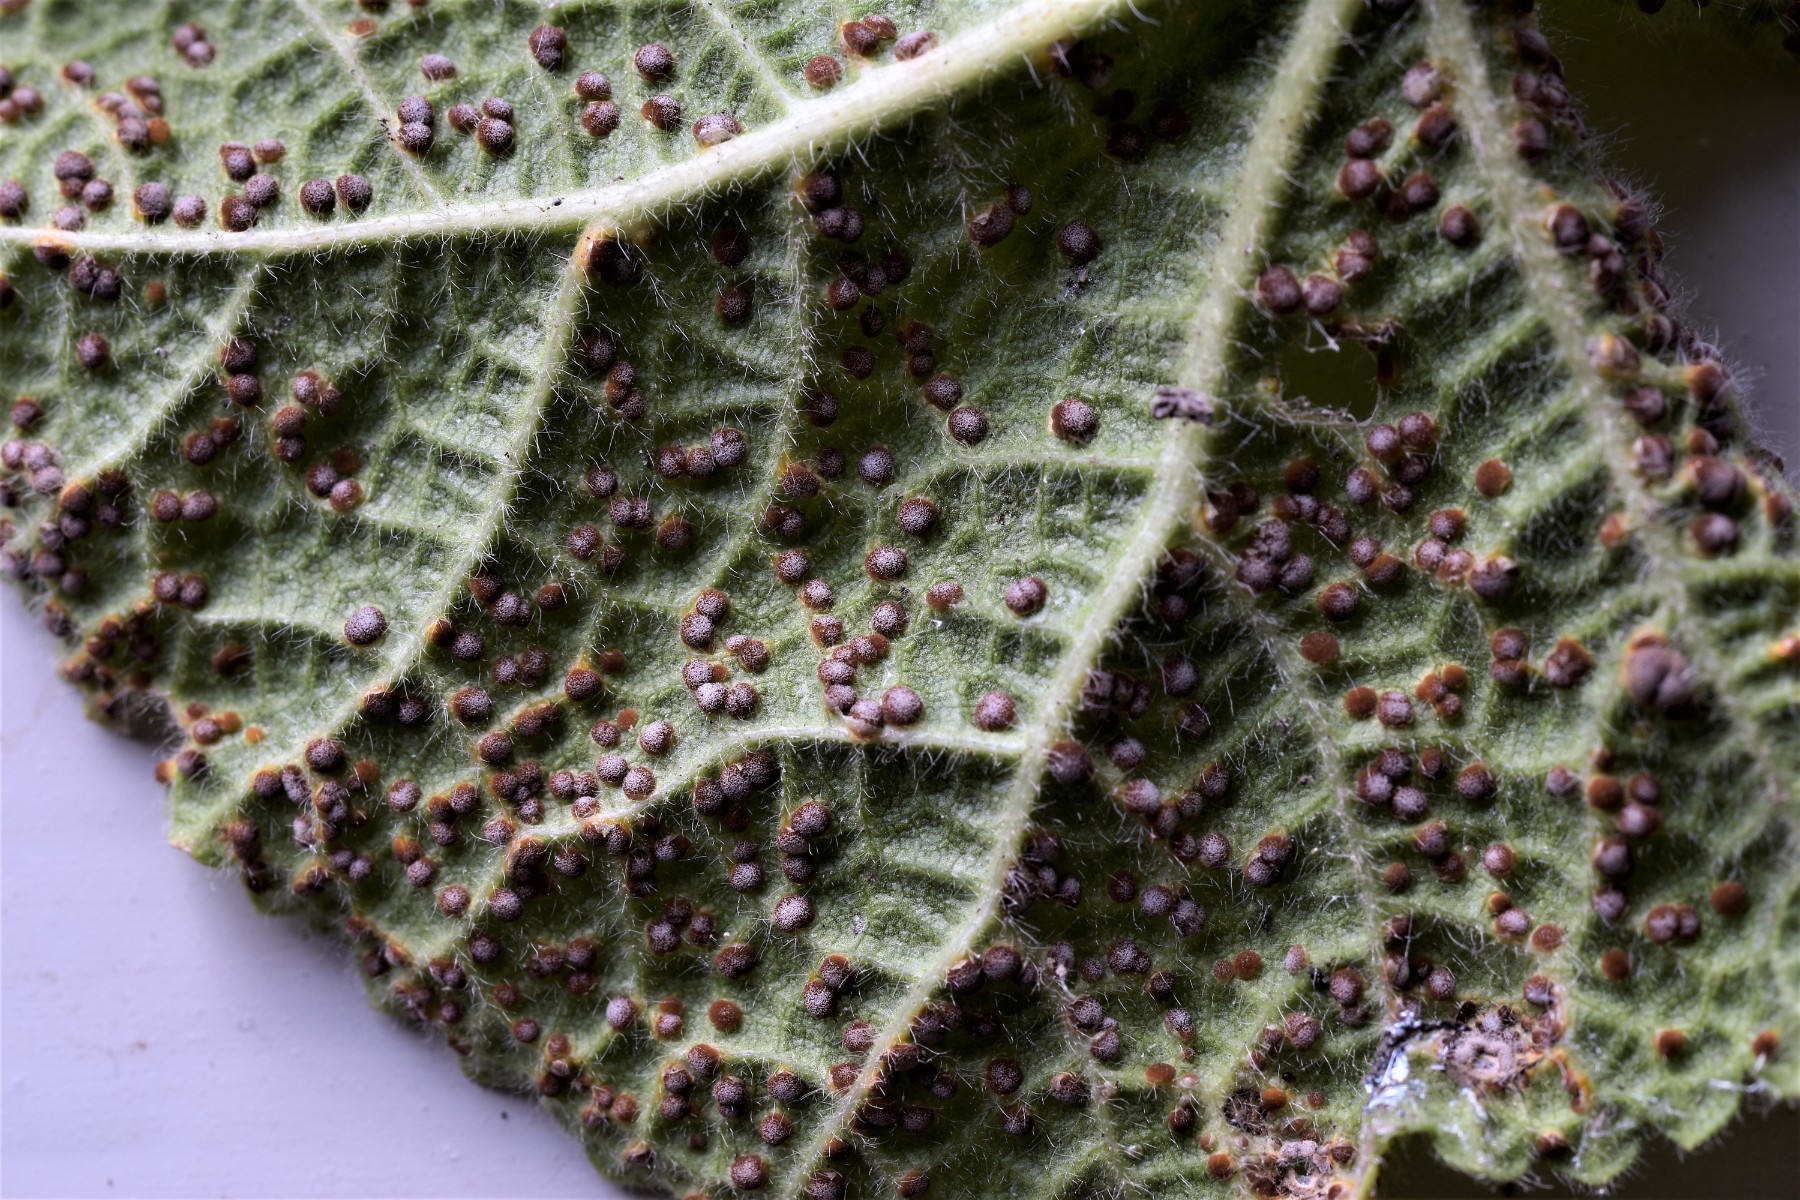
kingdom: Fungi
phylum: Basidiomycota
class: Pucciniomycetes
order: Pucciniales
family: Pucciniaceae
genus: Puccinia
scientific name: Puccinia malvacearum
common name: stokrose-tvecellerust
